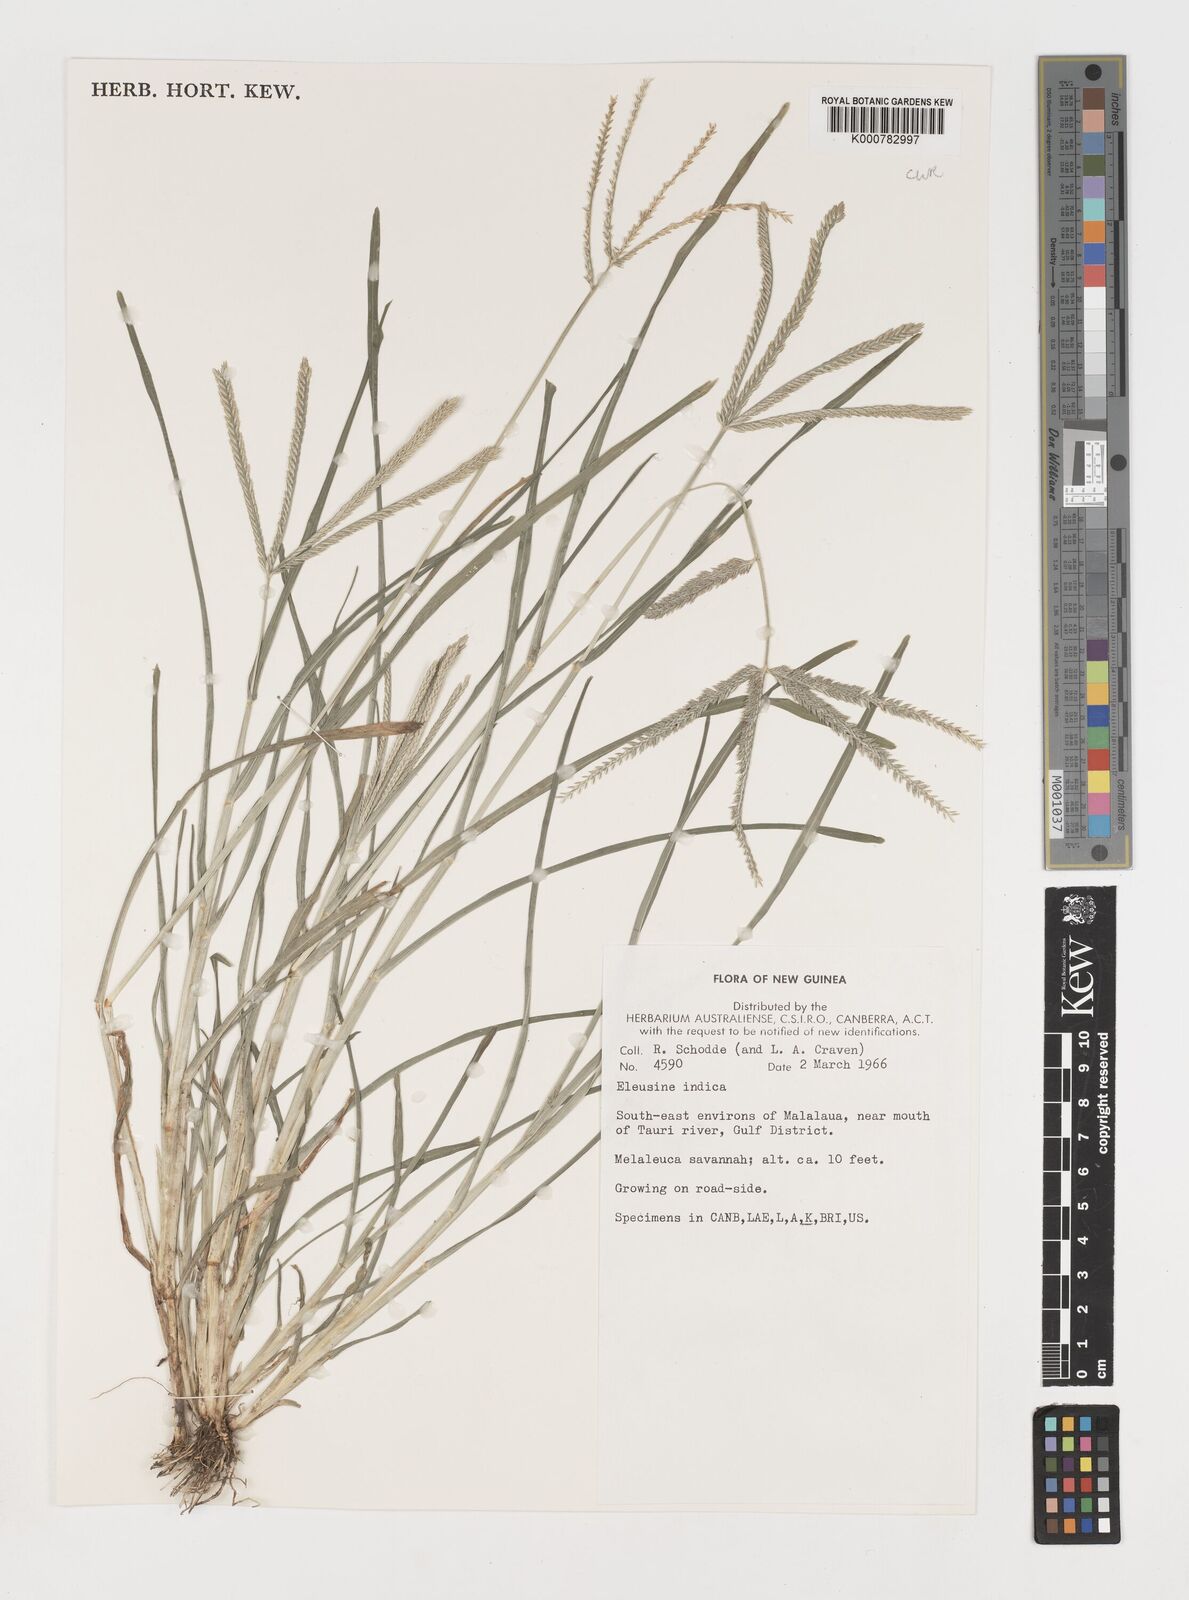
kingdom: Plantae
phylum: Tracheophyta
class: Liliopsida
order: Poales
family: Poaceae
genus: Eleusine
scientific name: Eleusine indica
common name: Yard-grass
